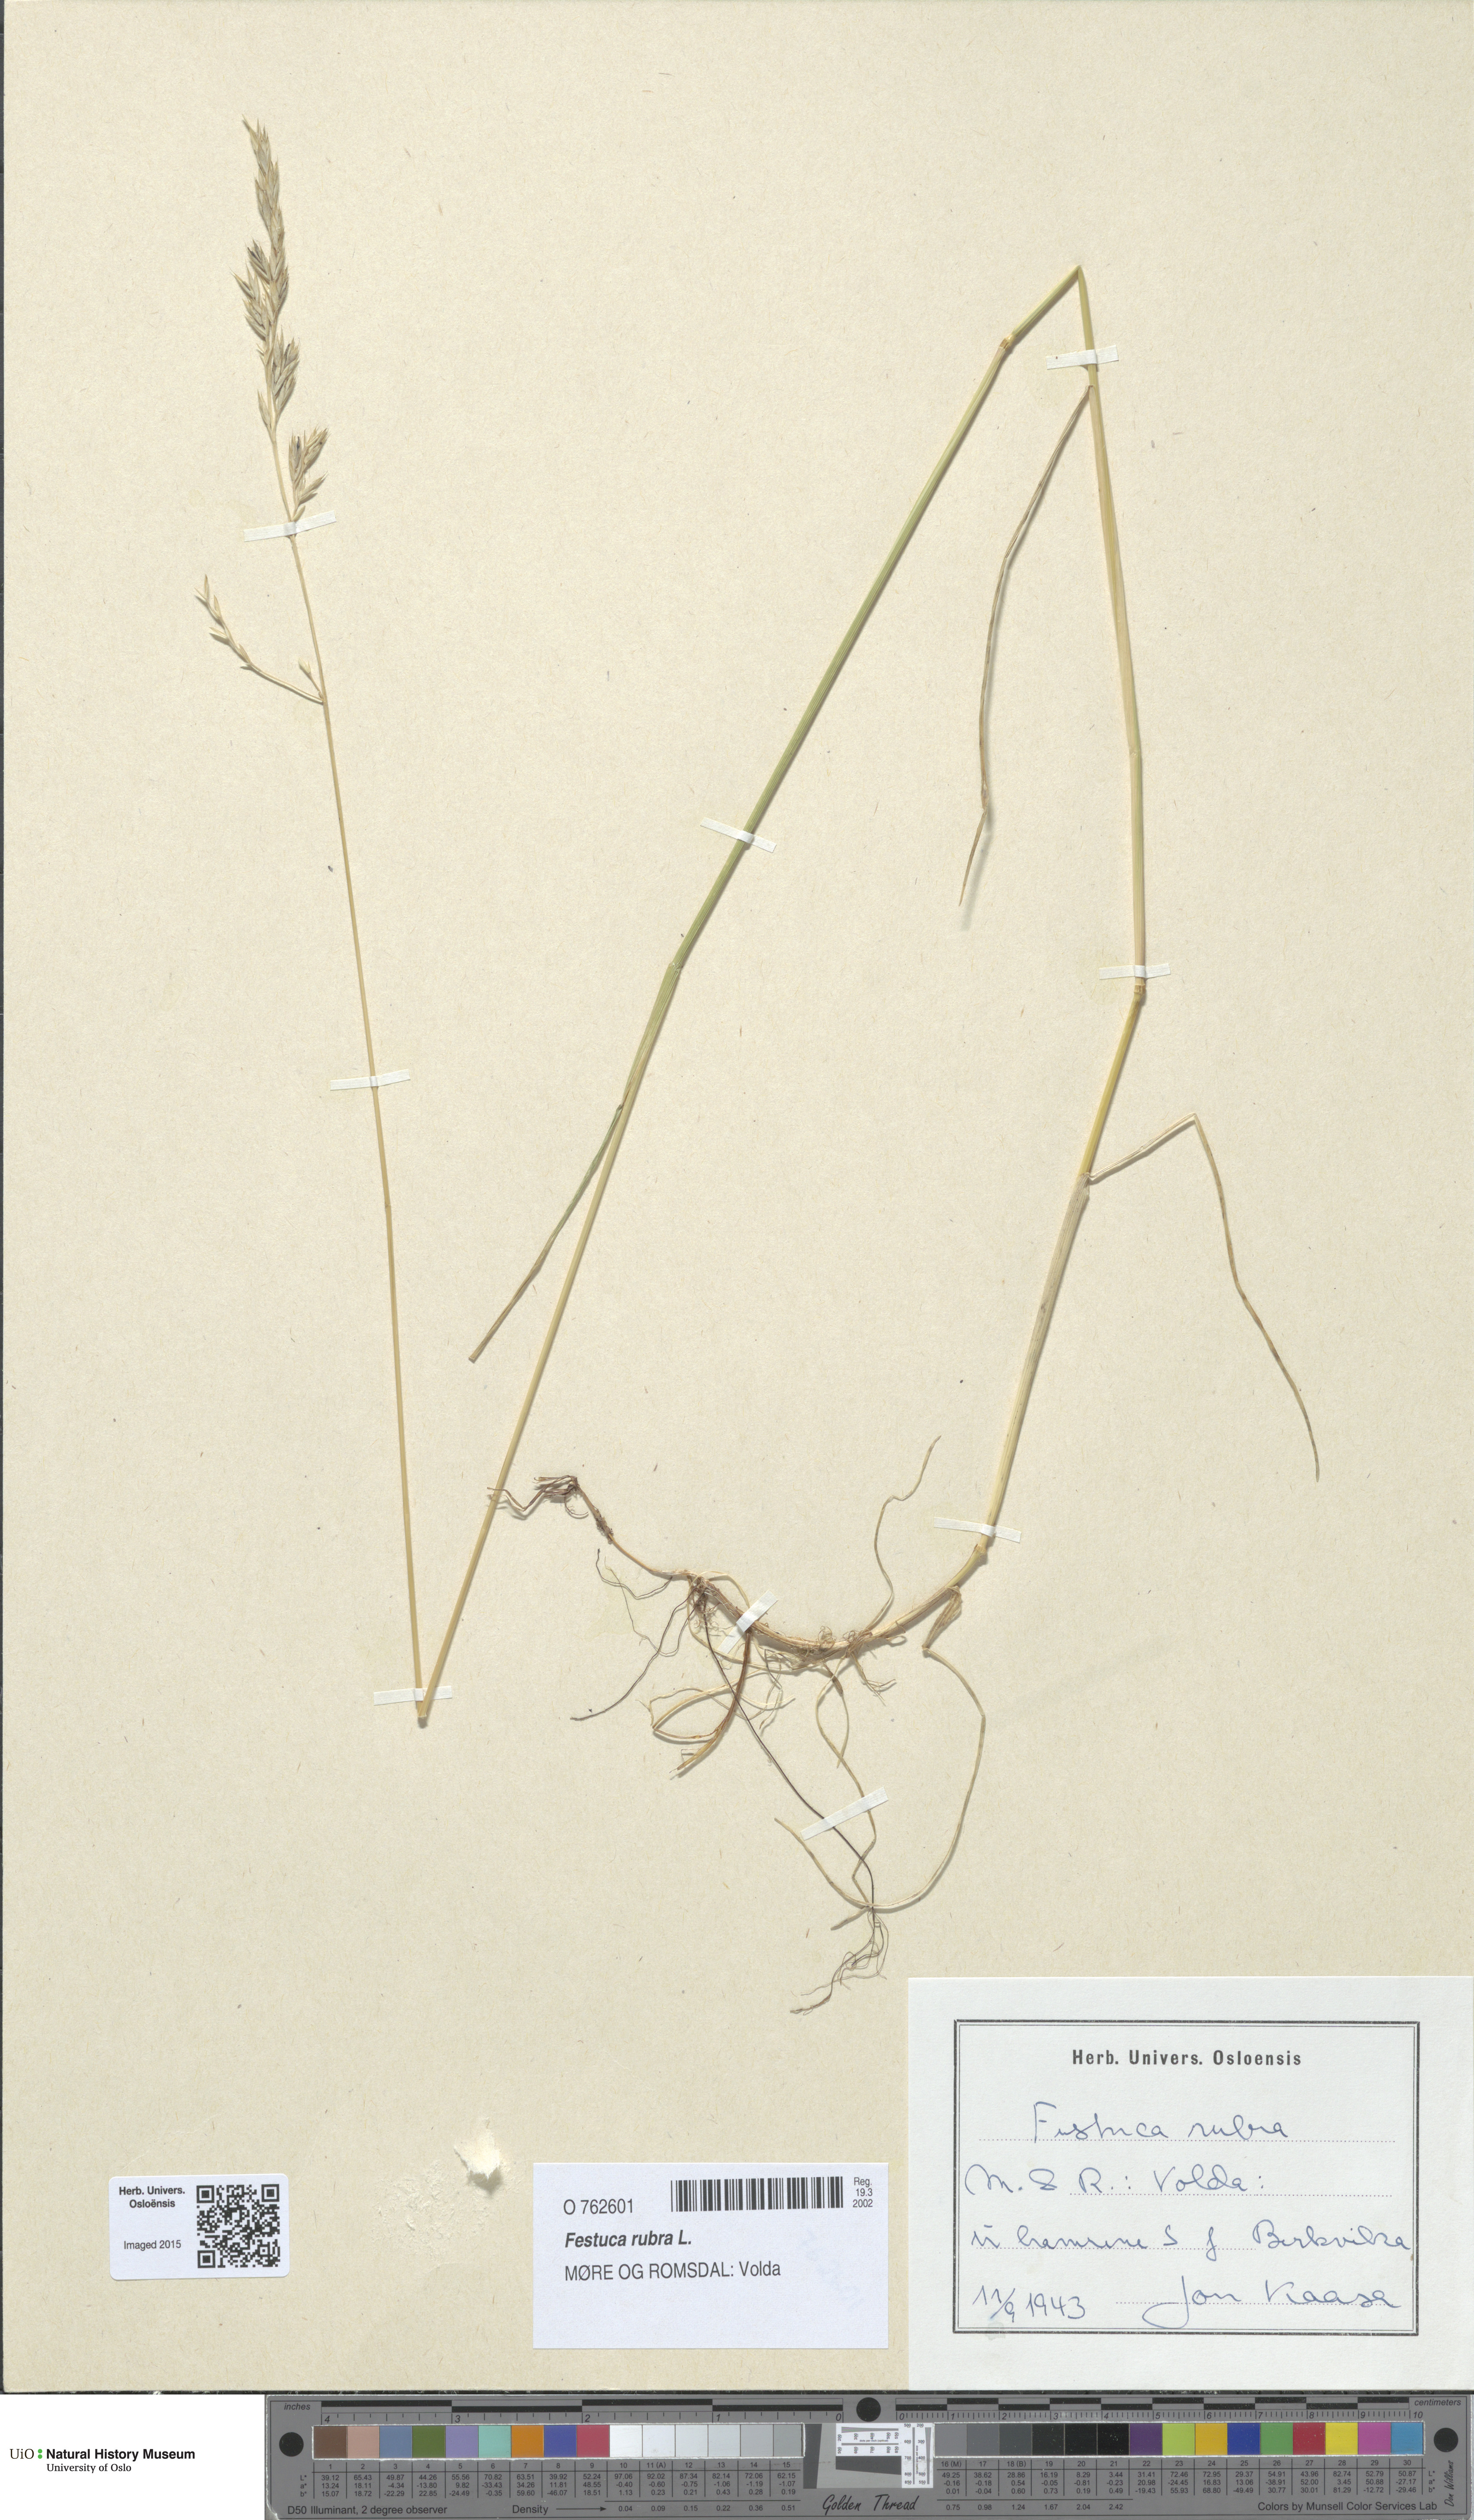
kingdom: Plantae
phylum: Tracheophyta
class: Liliopsida
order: Poales
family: Poaceae
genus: Festuca
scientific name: Festuca rubra
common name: Red fescue
